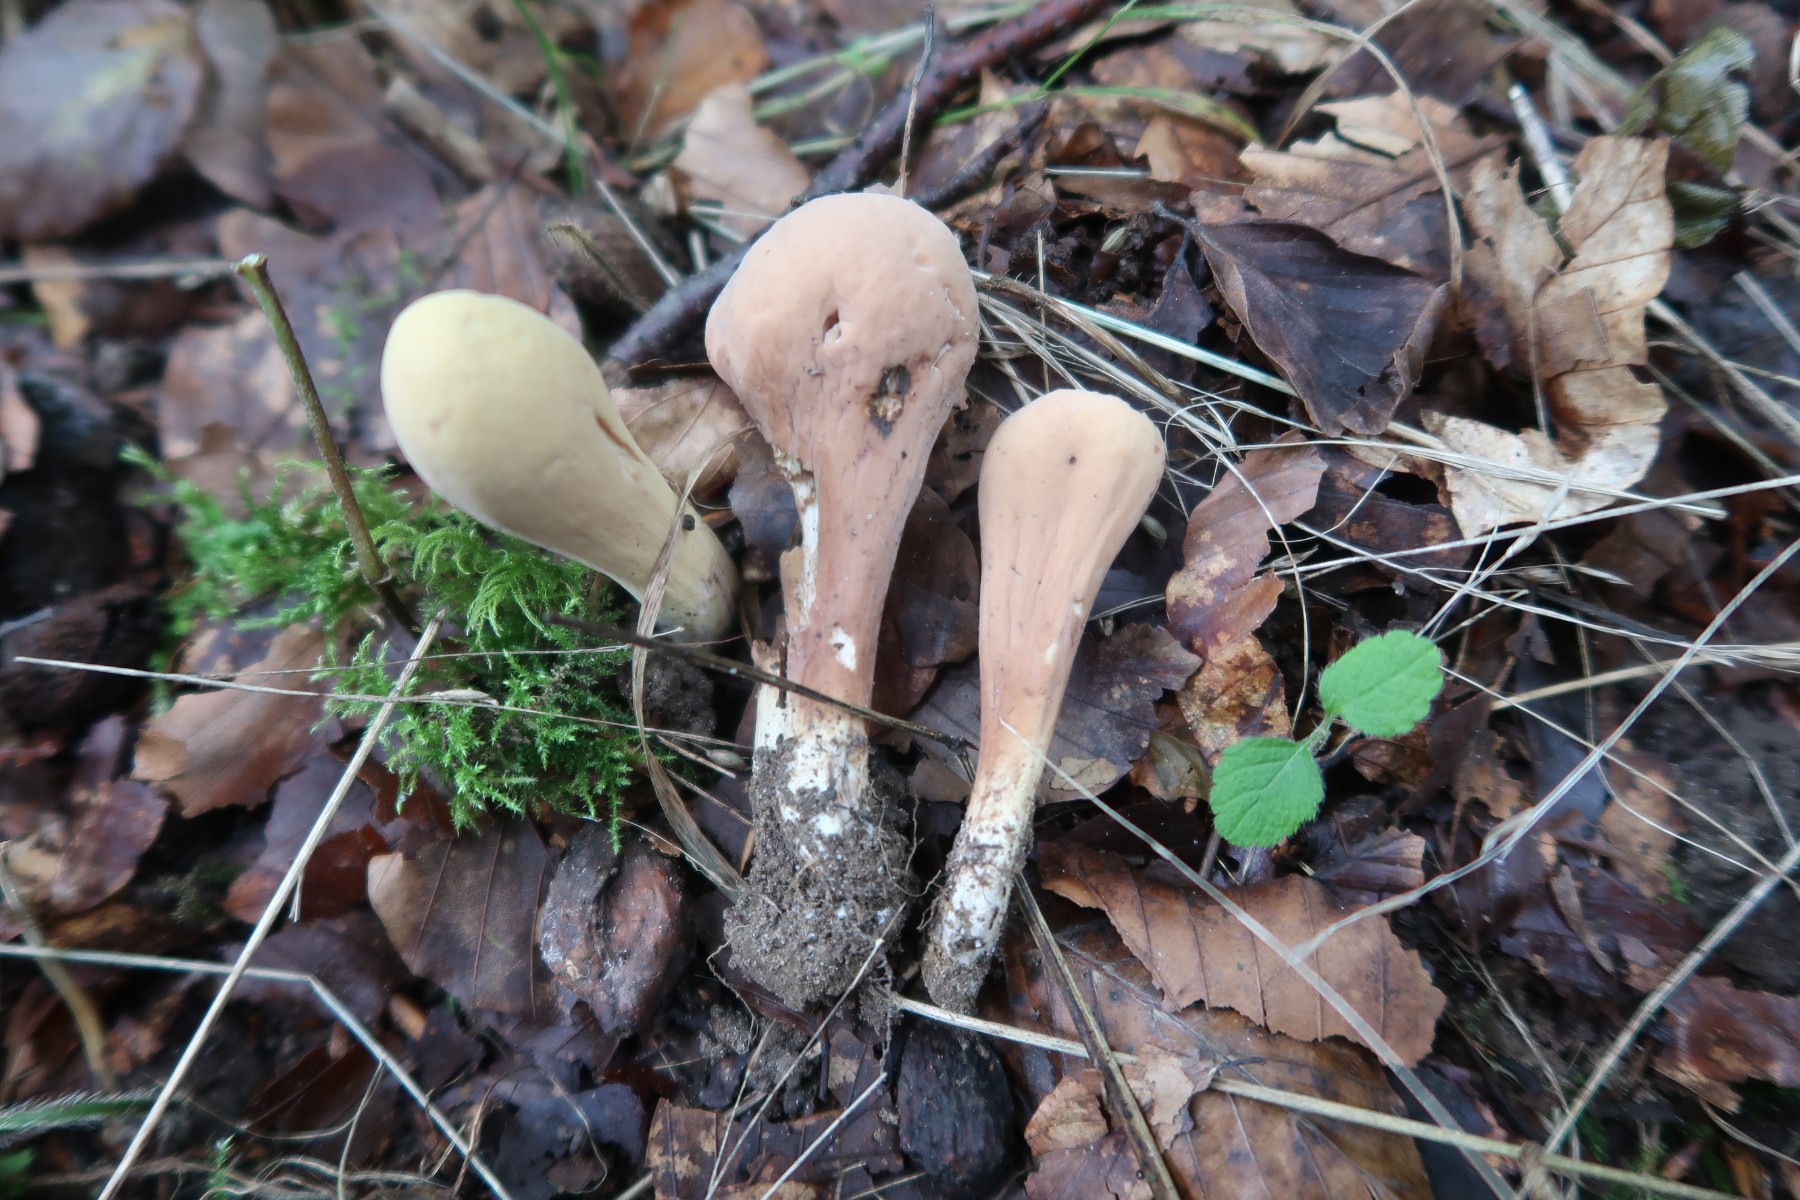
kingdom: Fungi
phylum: Basidiomycota
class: Agaricomycetes
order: Gomphales
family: Clavariadelphaceae
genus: Clavariadelphus
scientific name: Clavariadelphus pistillaris
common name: herkules-kæmpekølle
